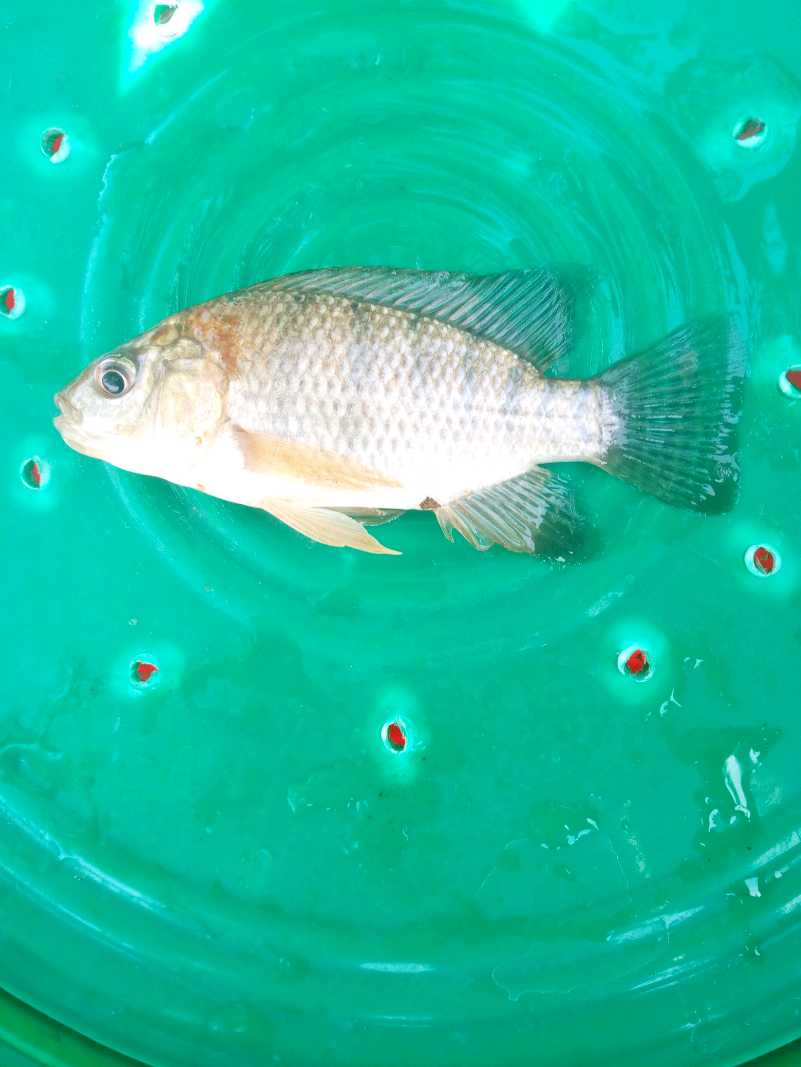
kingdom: Animalia
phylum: Chordata
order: Perciformes
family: Cichlidae
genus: Oreochromis
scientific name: Oreochromis spilurus
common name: Sabaki tilapia
